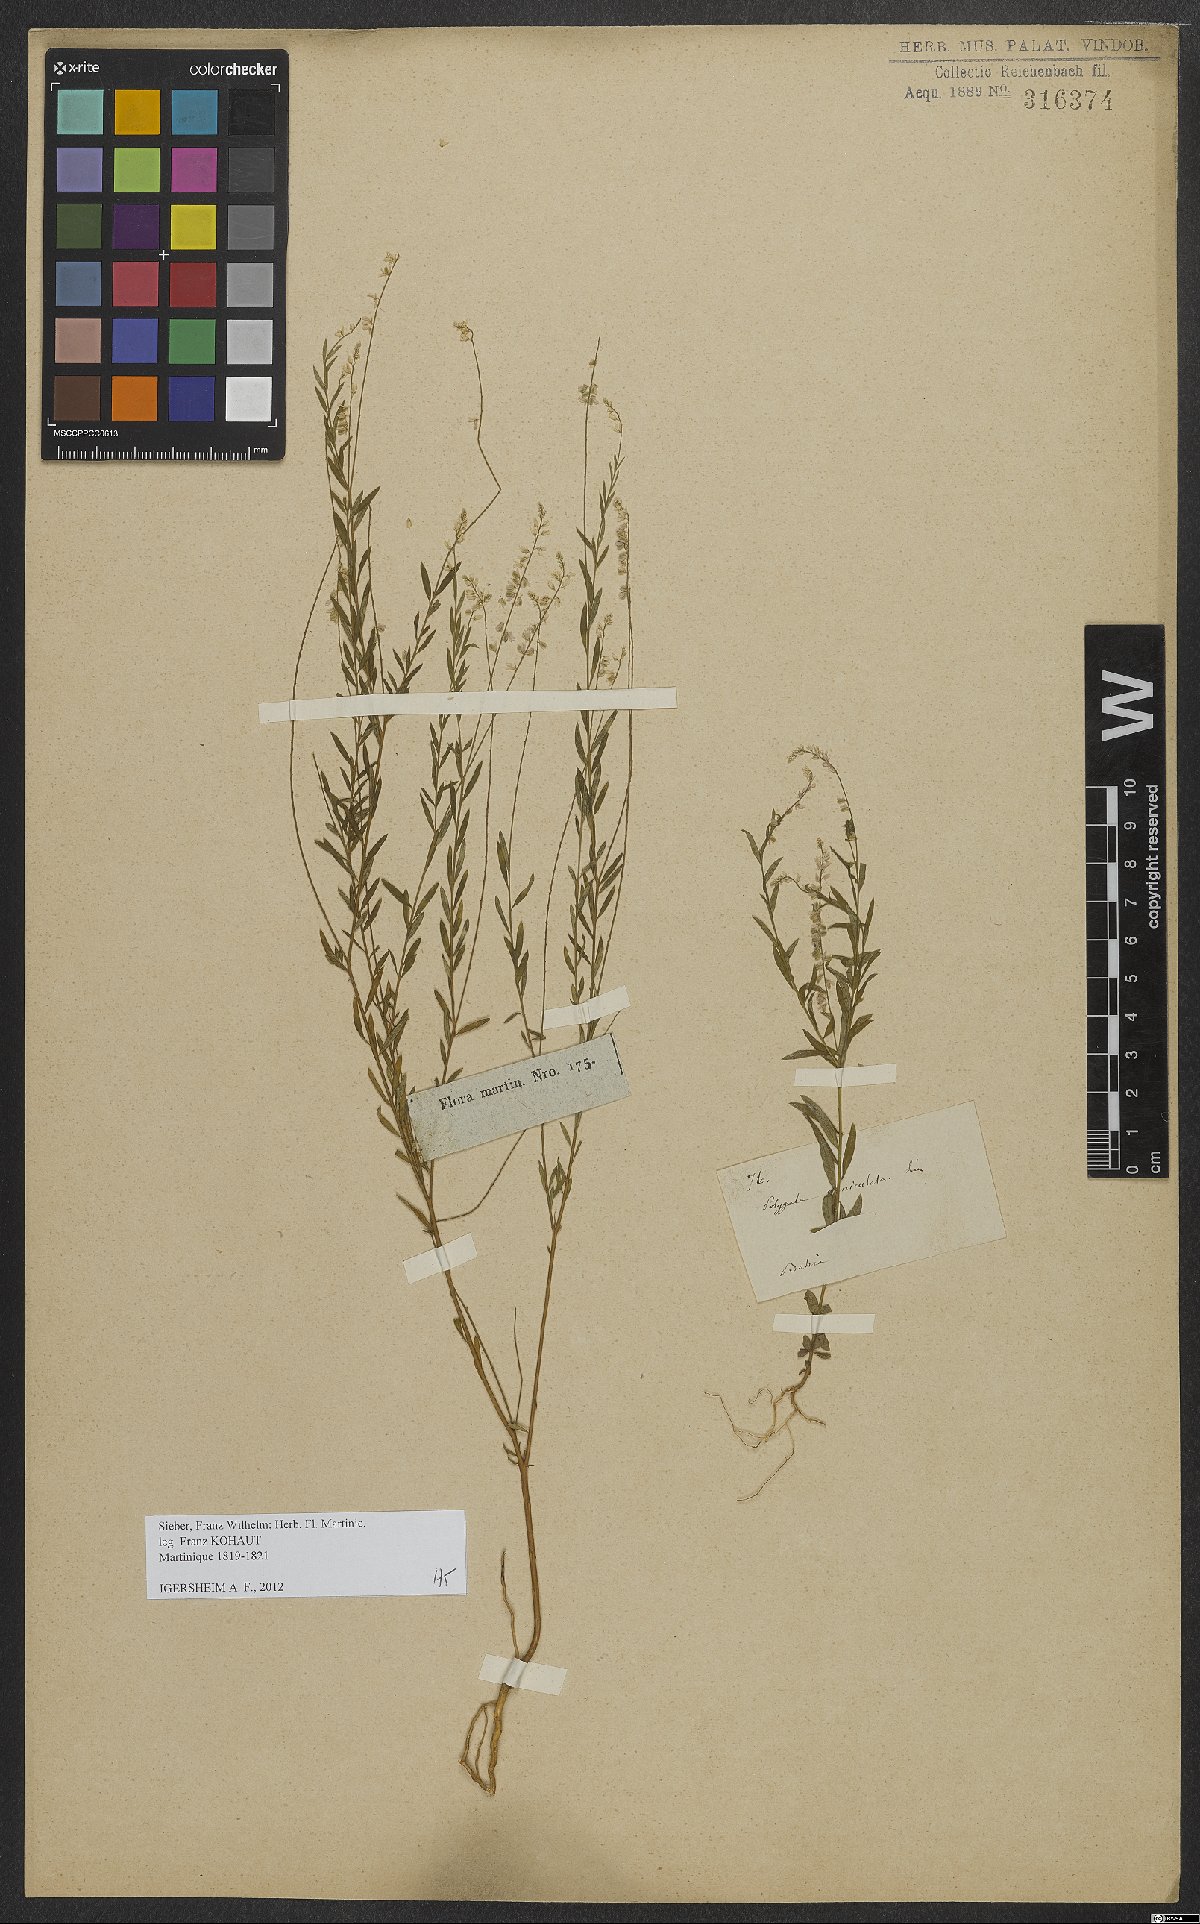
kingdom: Plantae
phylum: Tracheophyta
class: Magnoliopsida
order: Fabales
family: Polygalaceae
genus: Polygala
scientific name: Polygala exilis
